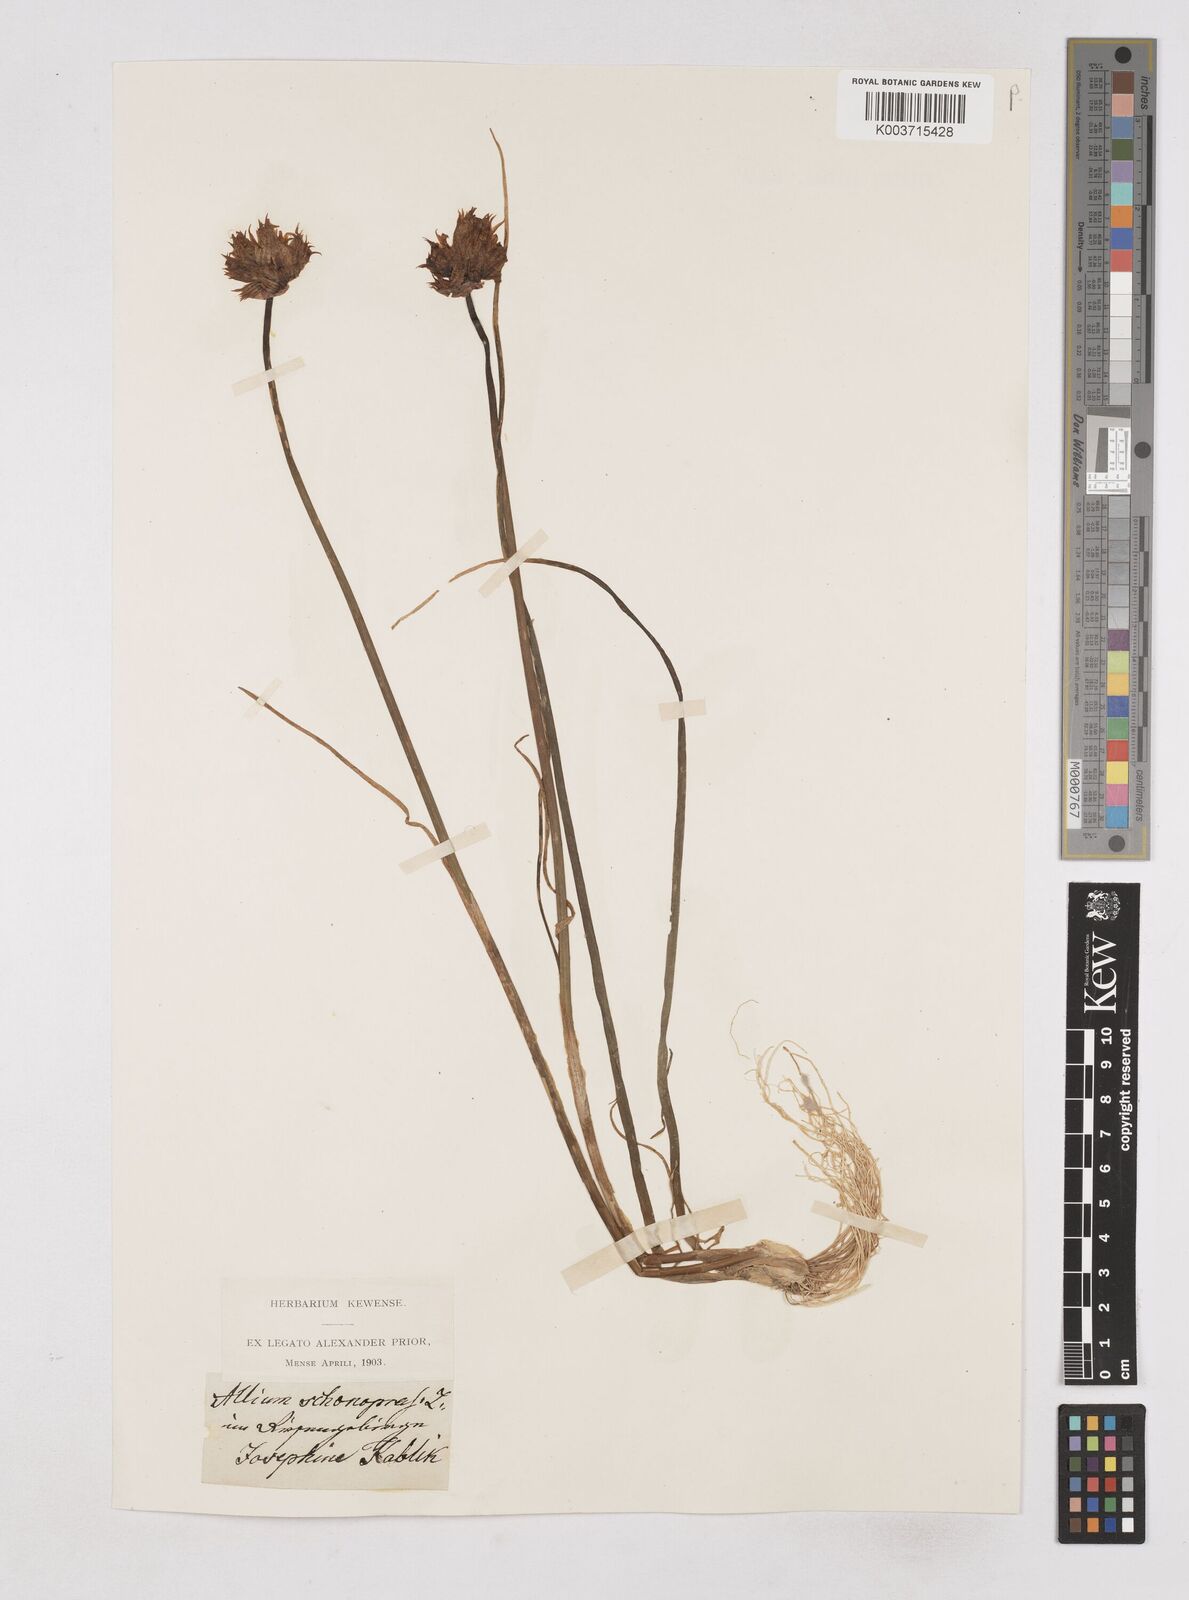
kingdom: Plantae
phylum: Tracheophyta
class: Liliopsida
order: Asparagales
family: Amaryllidaceae
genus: Allium
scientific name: Allium schoenoprasum
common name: Chives
